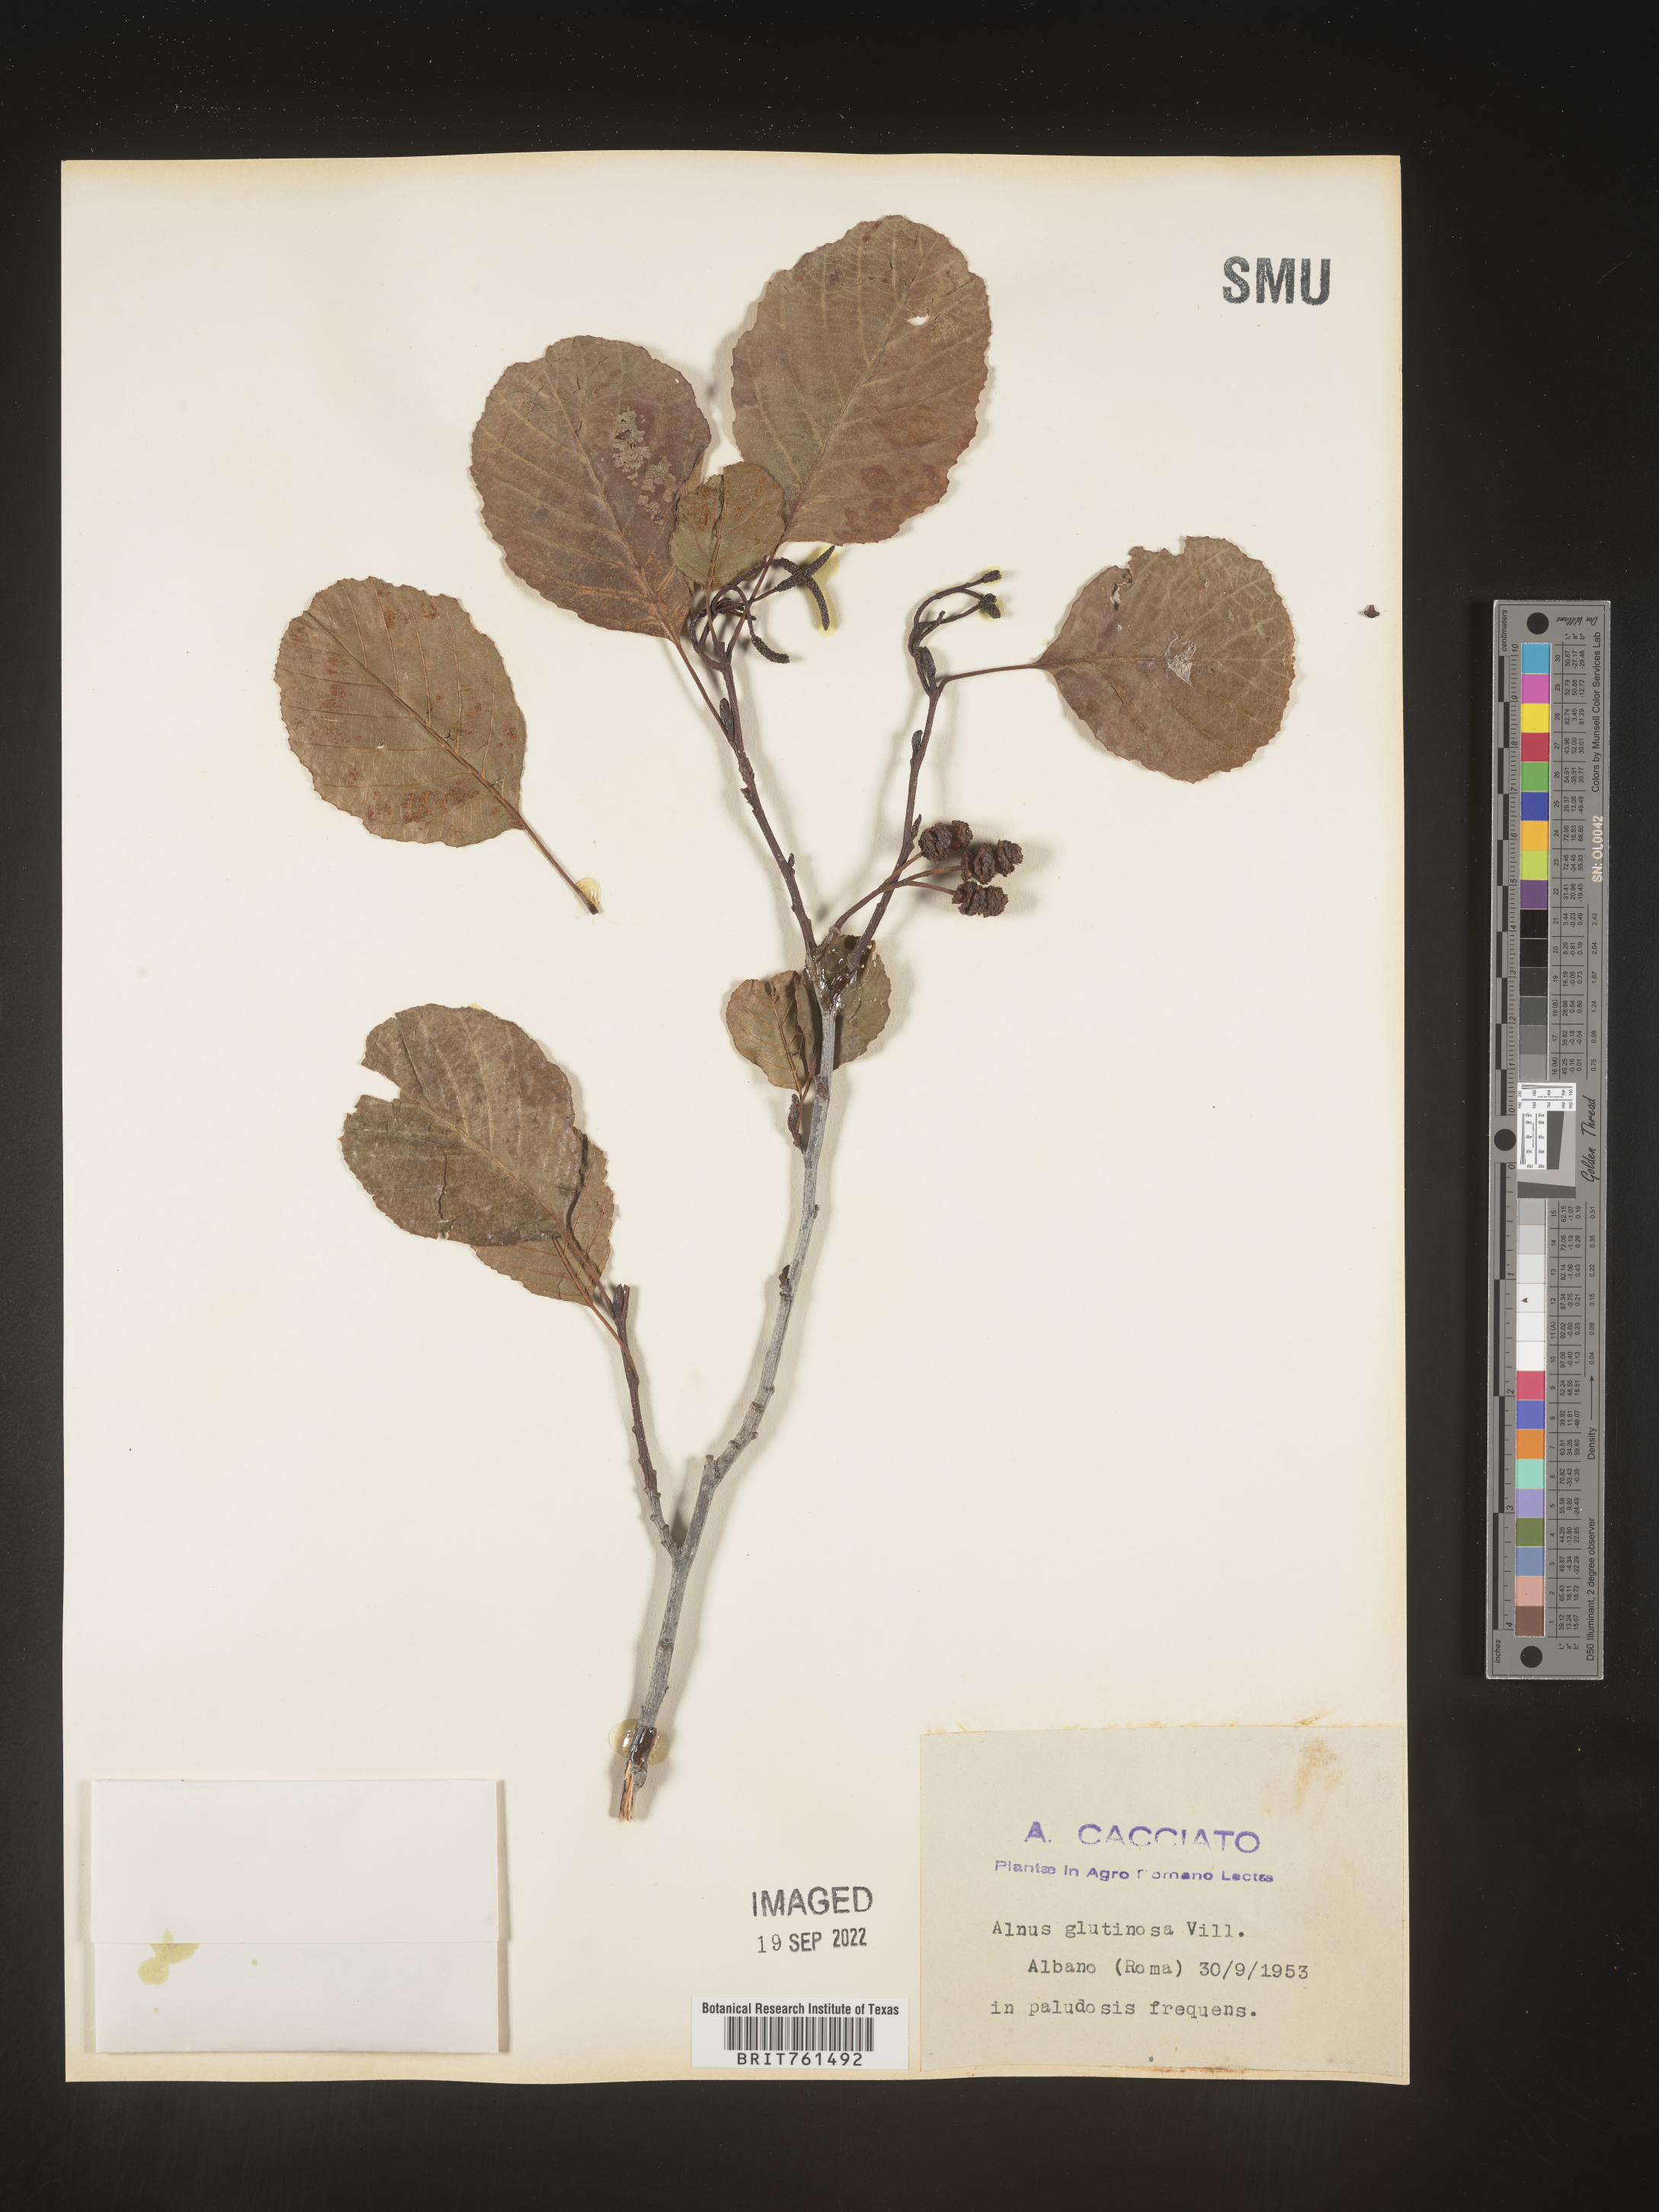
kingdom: Plantae
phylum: Tracheophyta
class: Magnoliopsida
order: Fagales
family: Betulaceae
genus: Alnus
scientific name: Alnus
